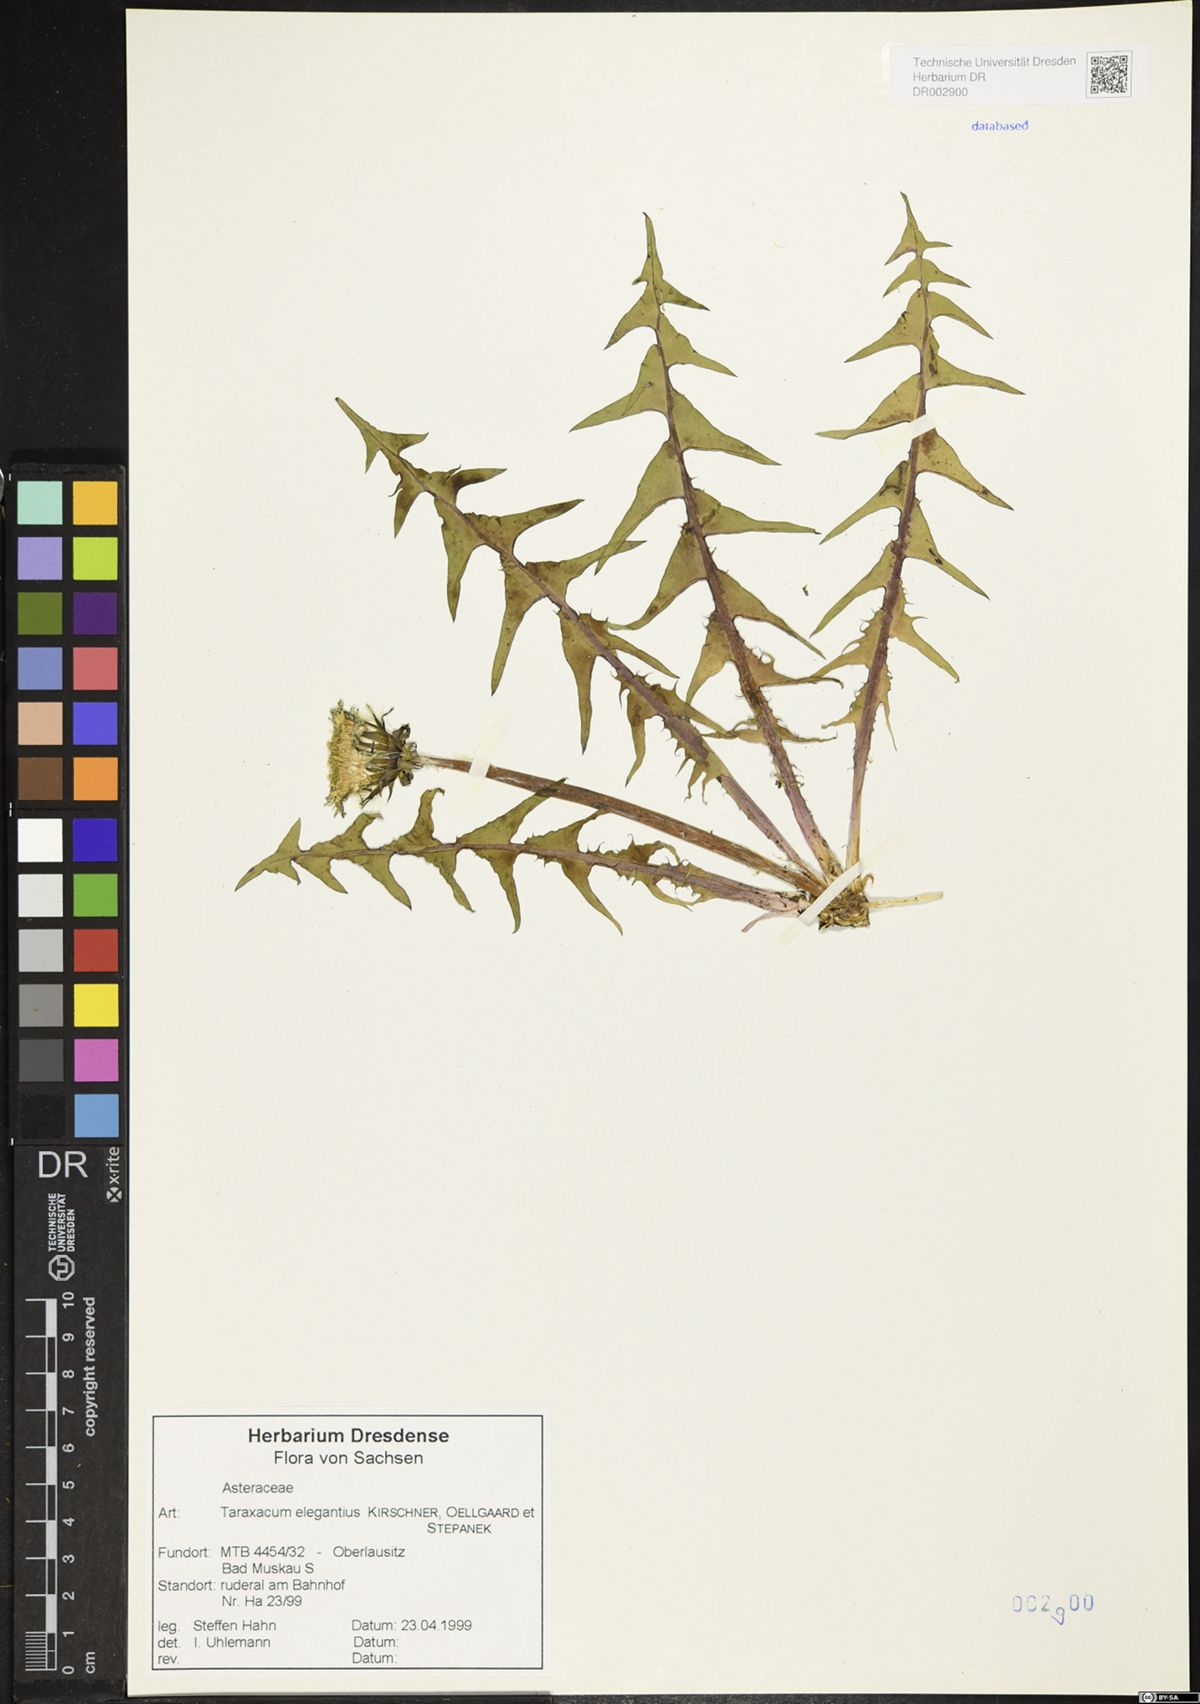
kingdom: Plantae
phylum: Tracheophyta
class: Magnoliopsida
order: Asterales
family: Asteraceae
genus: Taraxacum
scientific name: Taraxacum elegantius
